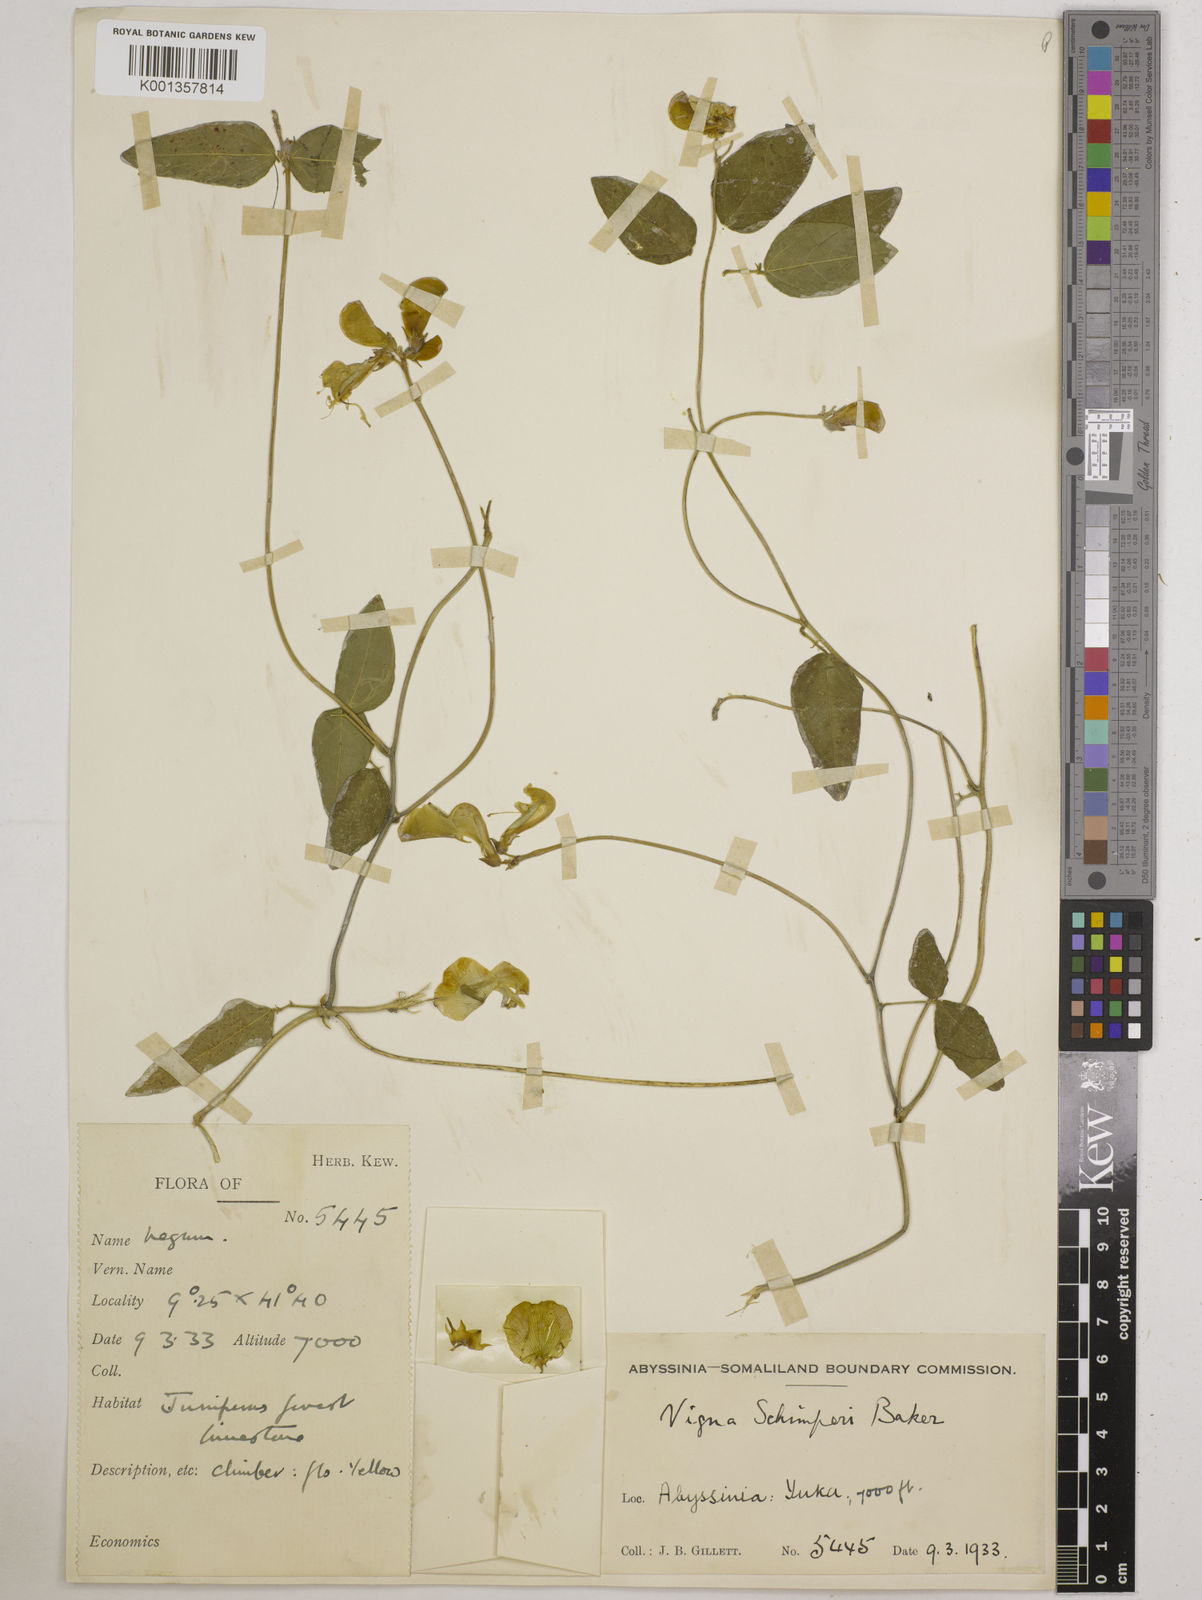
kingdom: Plantae
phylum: Tracheophyta
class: Magnoliopsida
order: Fabales
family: Fabaceae
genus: Vigna
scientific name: Vigna schimperi
